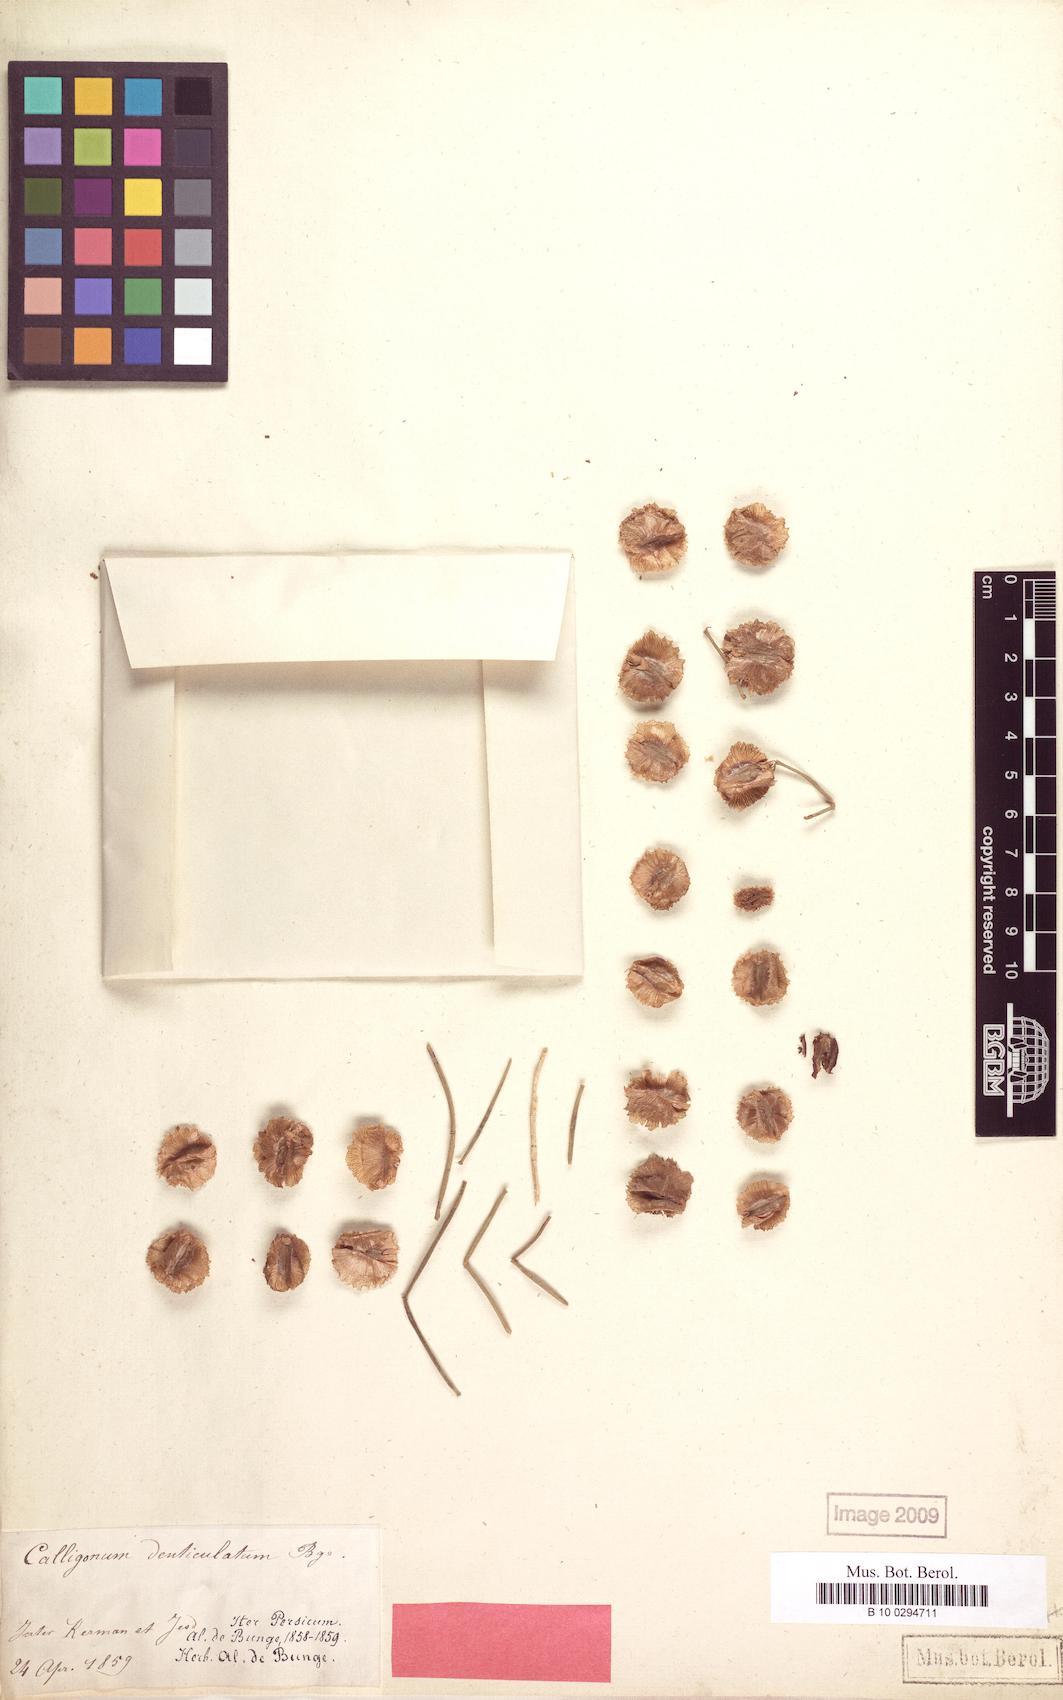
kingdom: Plantae
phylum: Tracheophyta
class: Magnoliopsida
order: Caryophyllales
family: Polygonaceae
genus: Calligonum
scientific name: Calligonum tetrapterum
